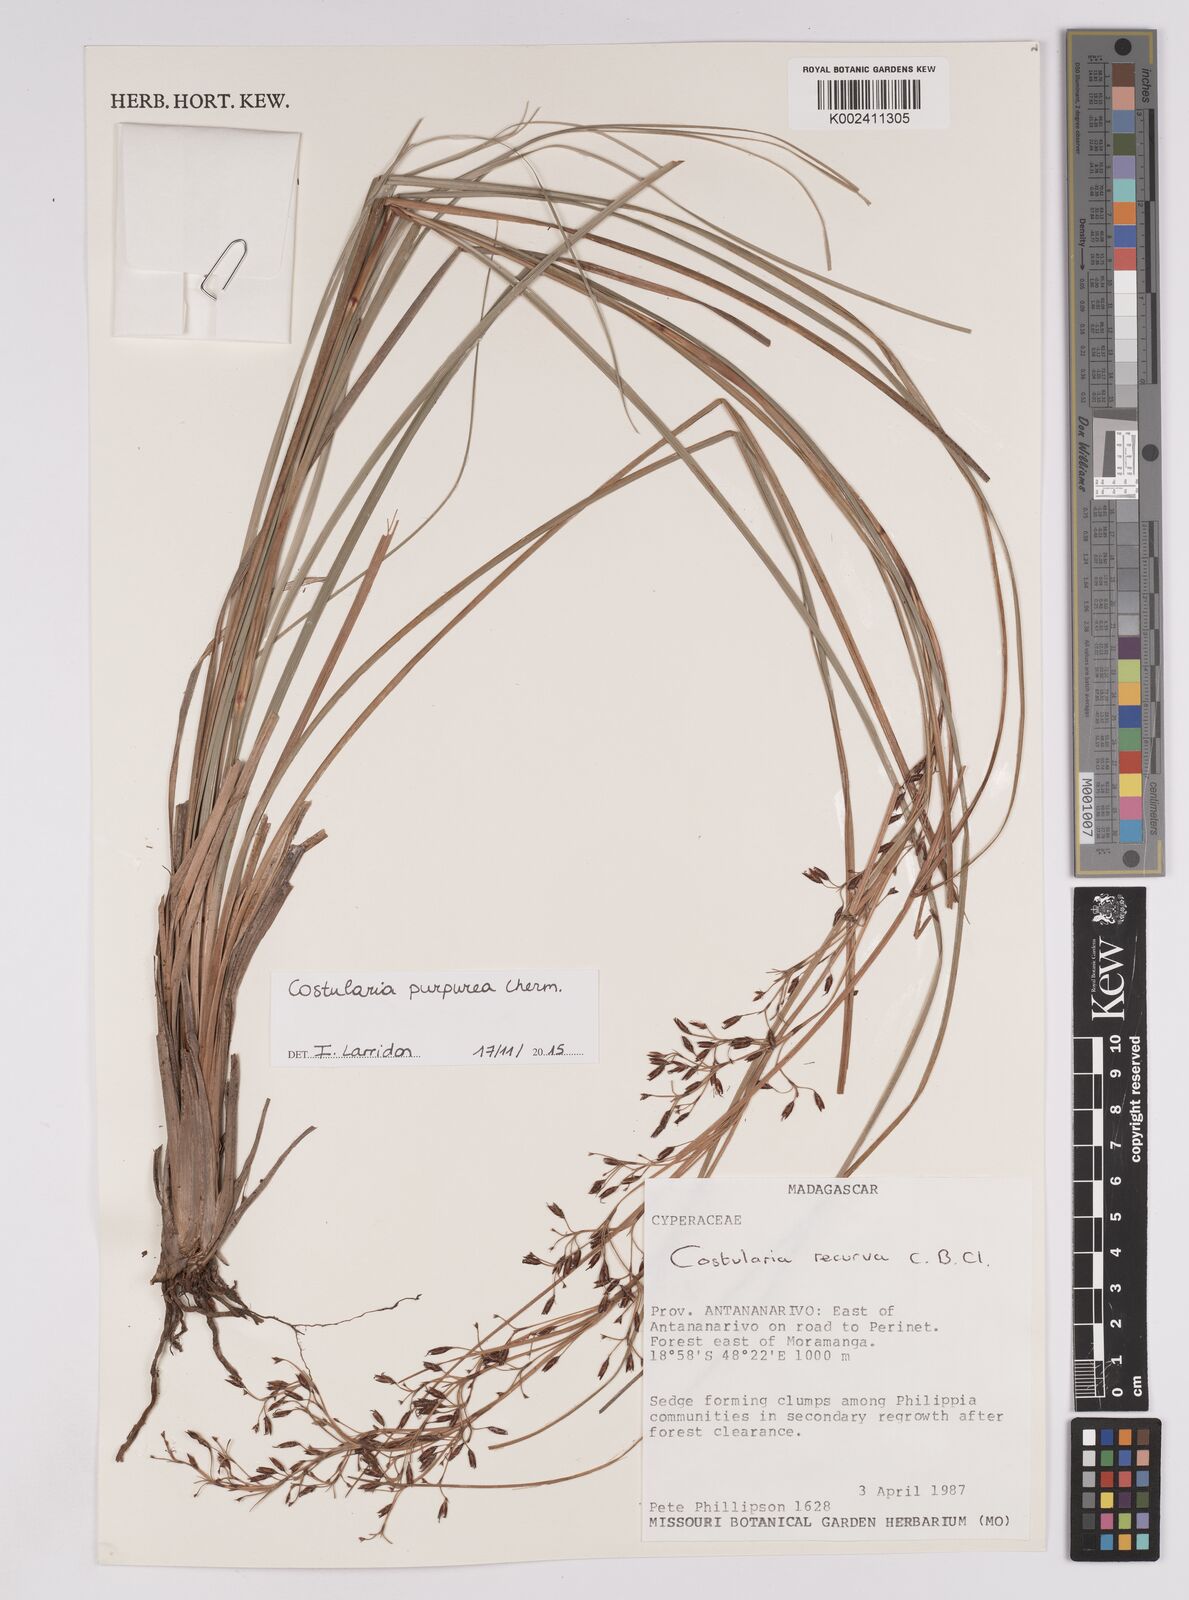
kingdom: Plantae
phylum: Tracheophyta
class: Liliopsida
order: Poales
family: Cyperaceae
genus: Costularia
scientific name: Costularia purpurea
